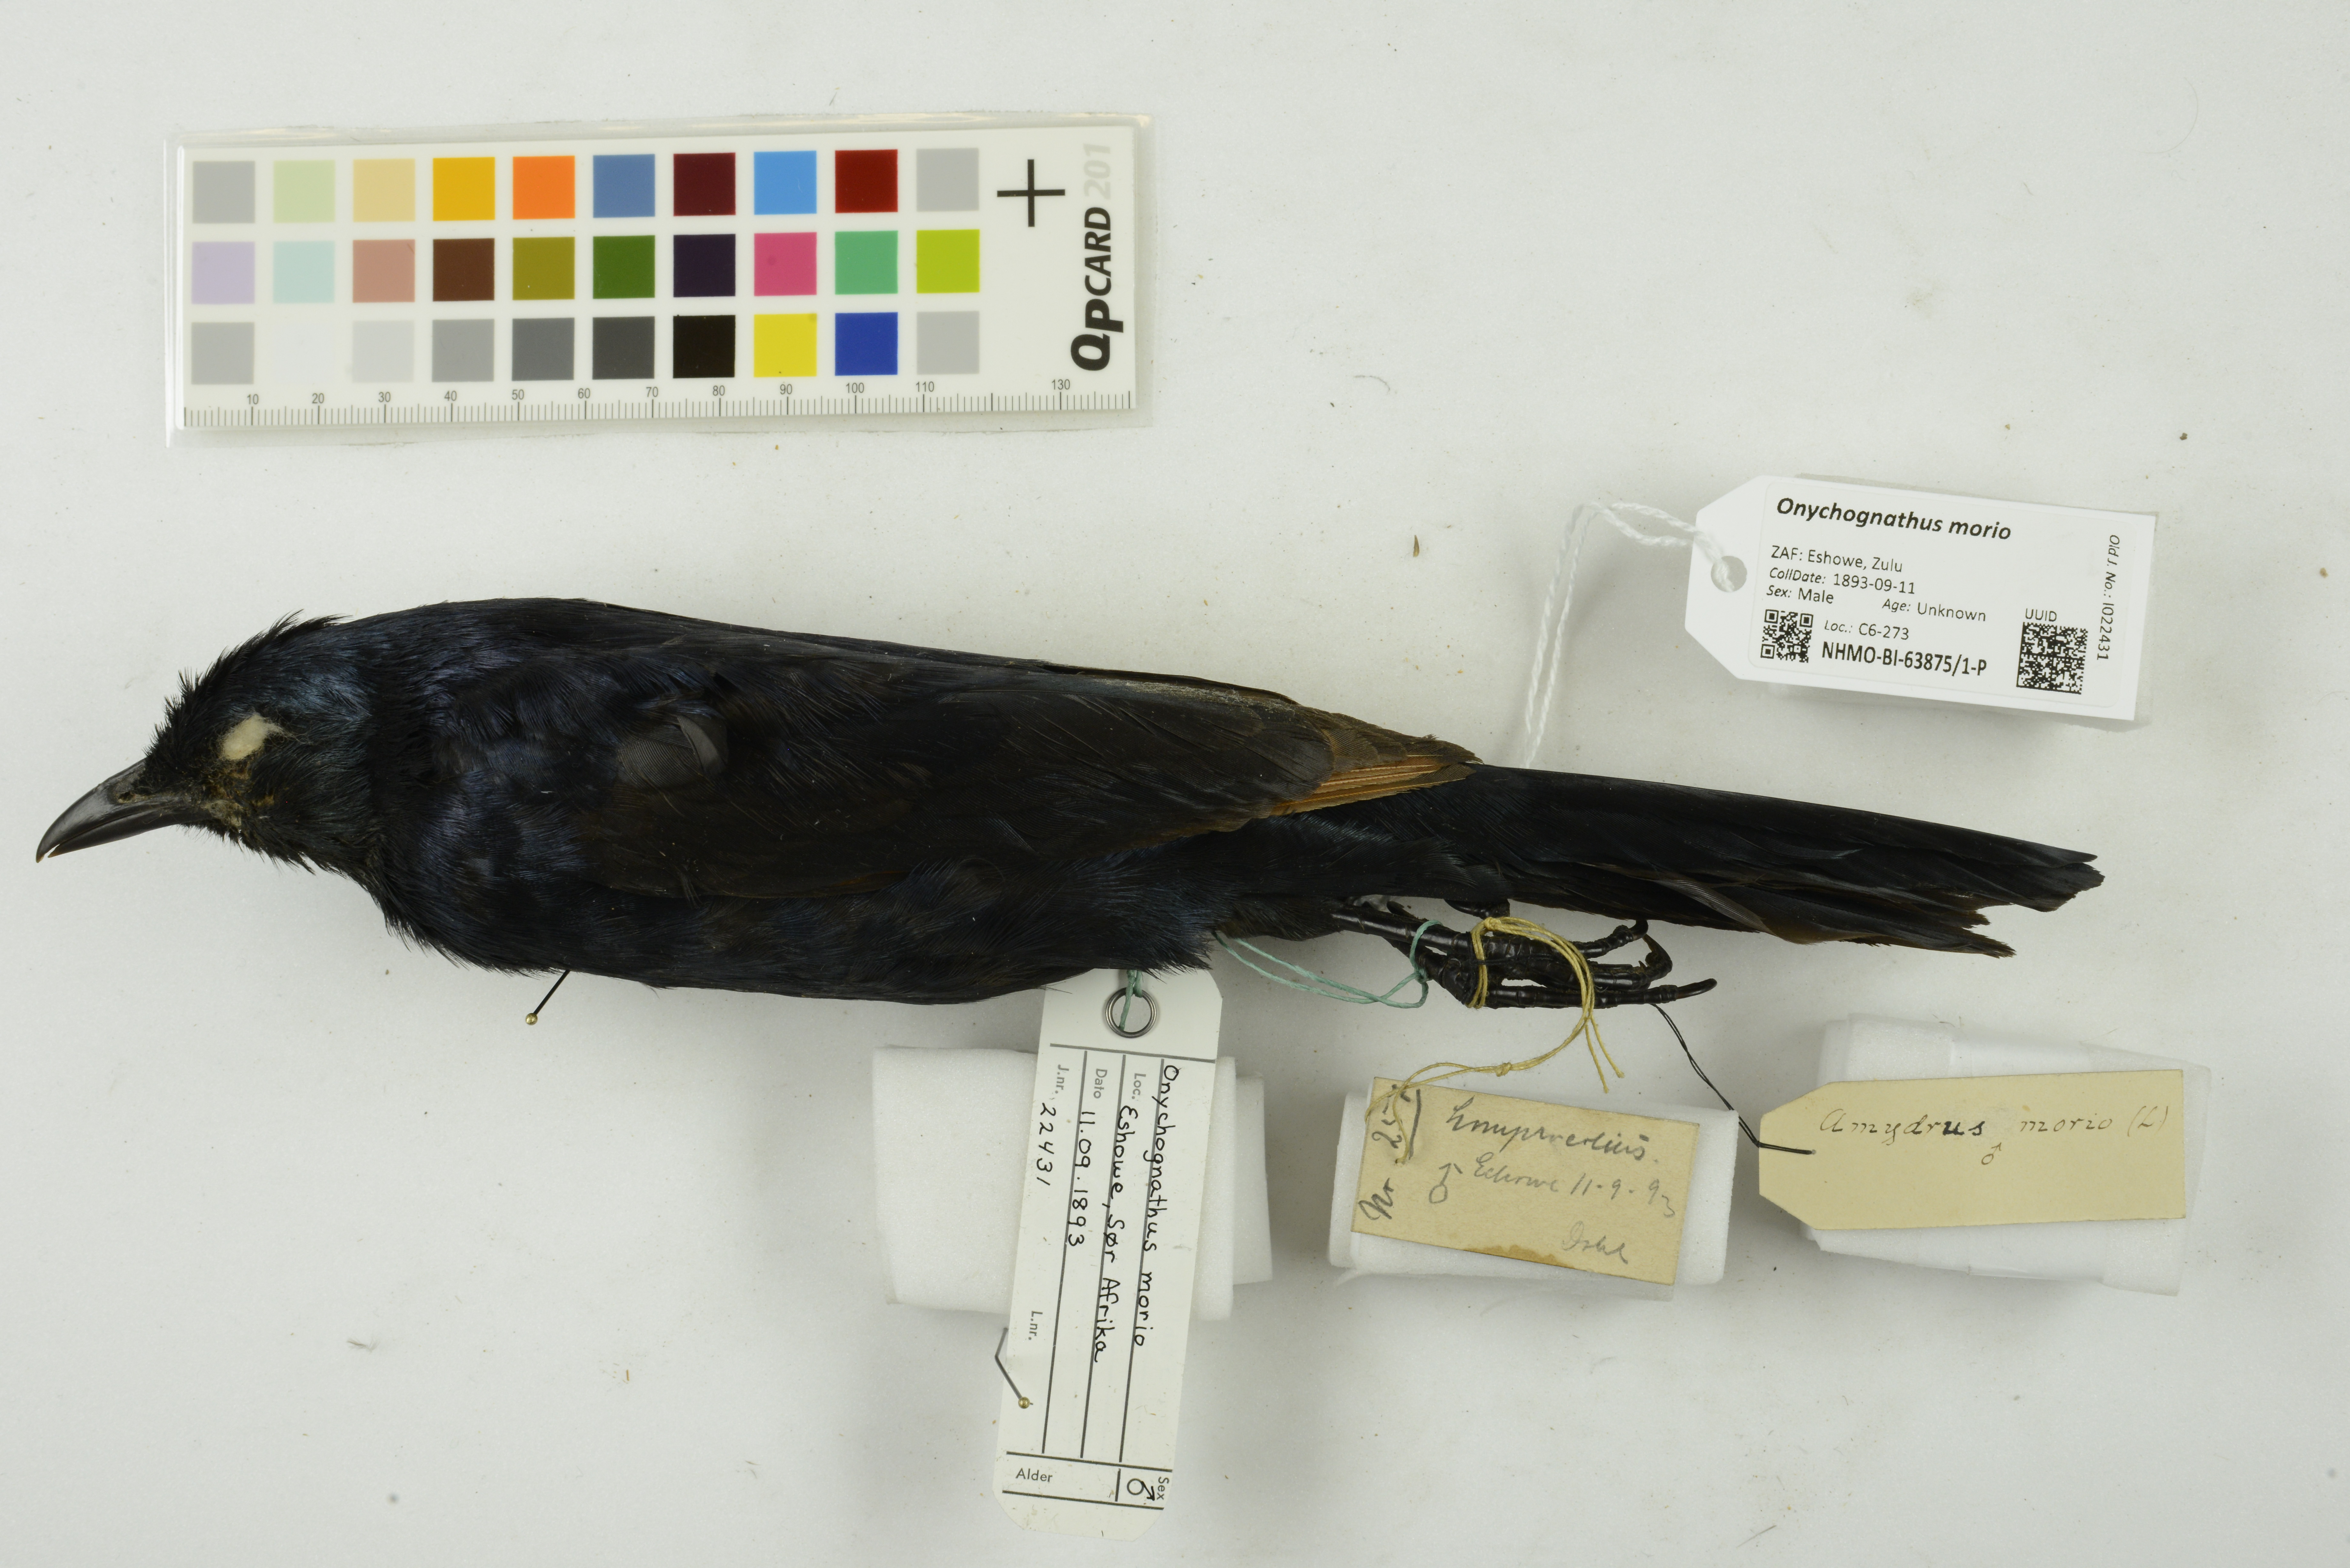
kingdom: Animalia
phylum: Chordata
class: Aves
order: Passeriformes
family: Sturnidae
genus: Onychognathus
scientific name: Onychognathus morio
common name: Red-winged starling
